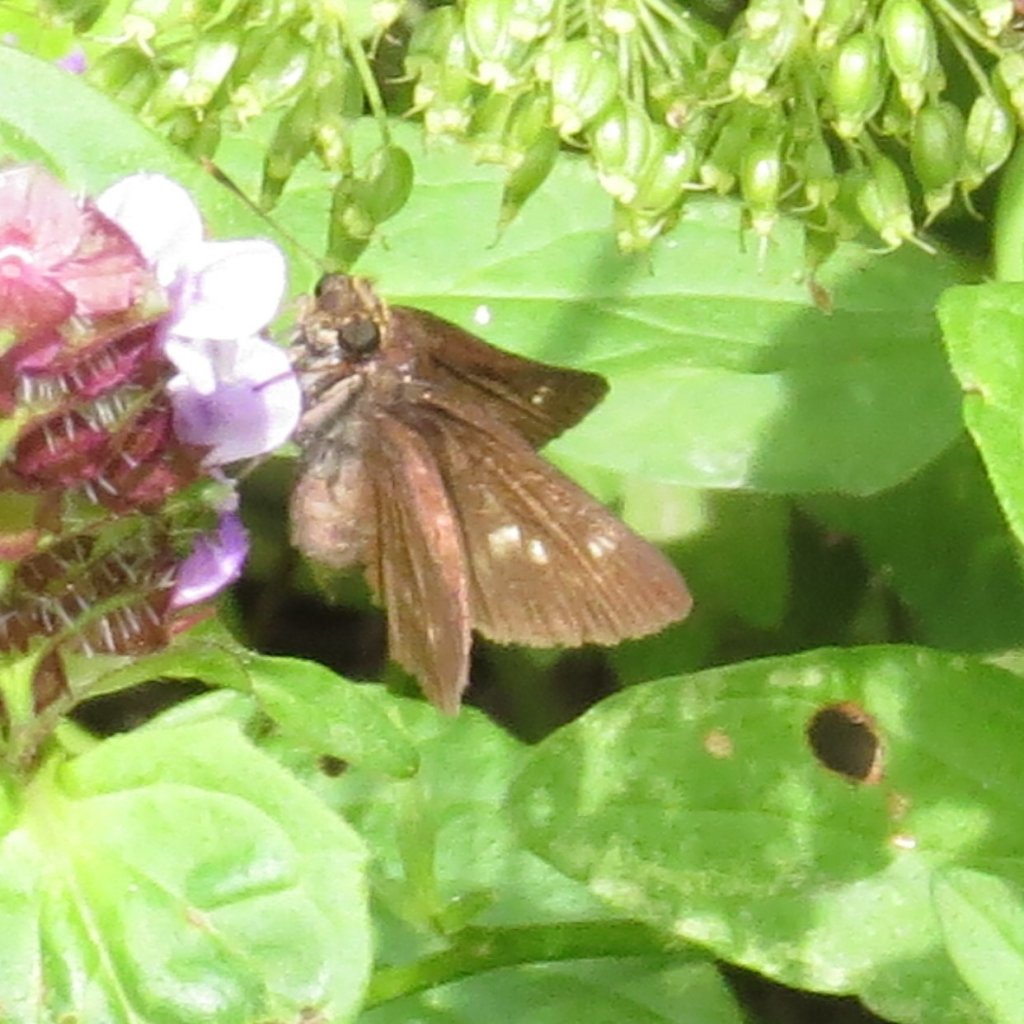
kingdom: Animalia
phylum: Arthropoda
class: Insecta
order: Lepidoptera
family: Hesperiidae
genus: Polites
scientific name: Polites egeremet
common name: Northern Broken-Dash
